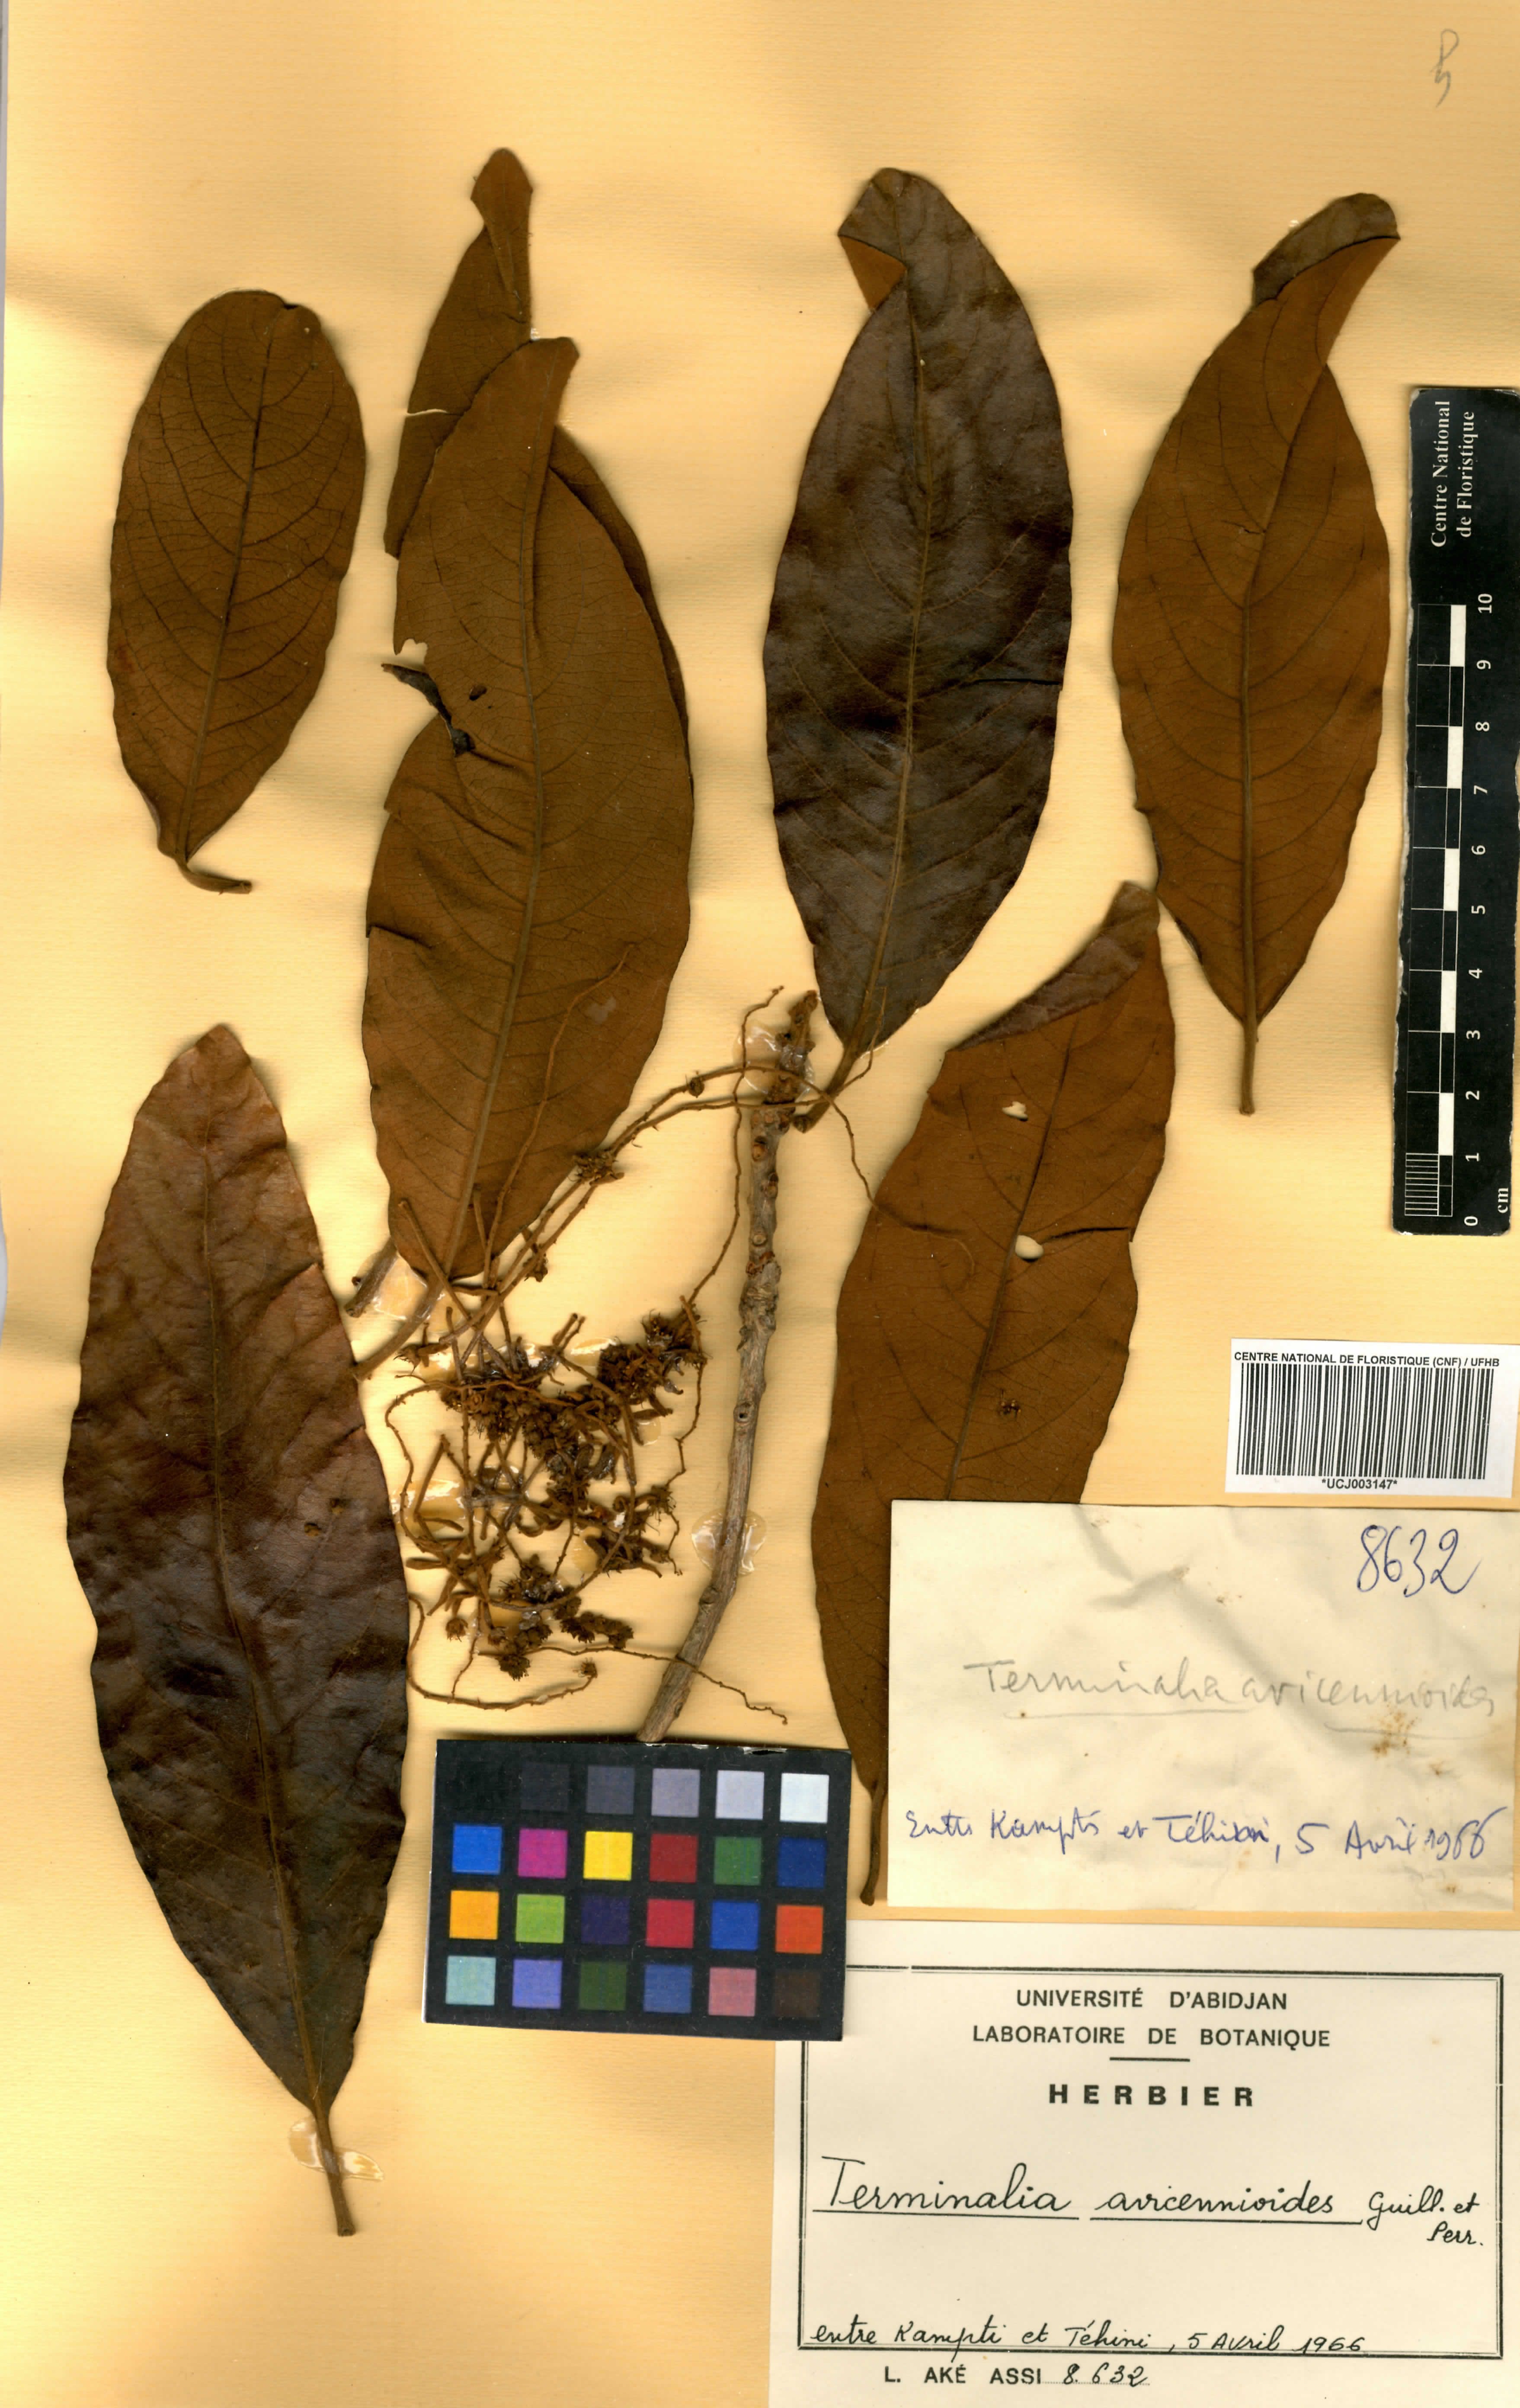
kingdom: Plantae
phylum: Tracheophyta
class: Magnoliopsida
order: Myrtales
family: Combretaceae
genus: Terminalia
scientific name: Terminalia avicennioides
